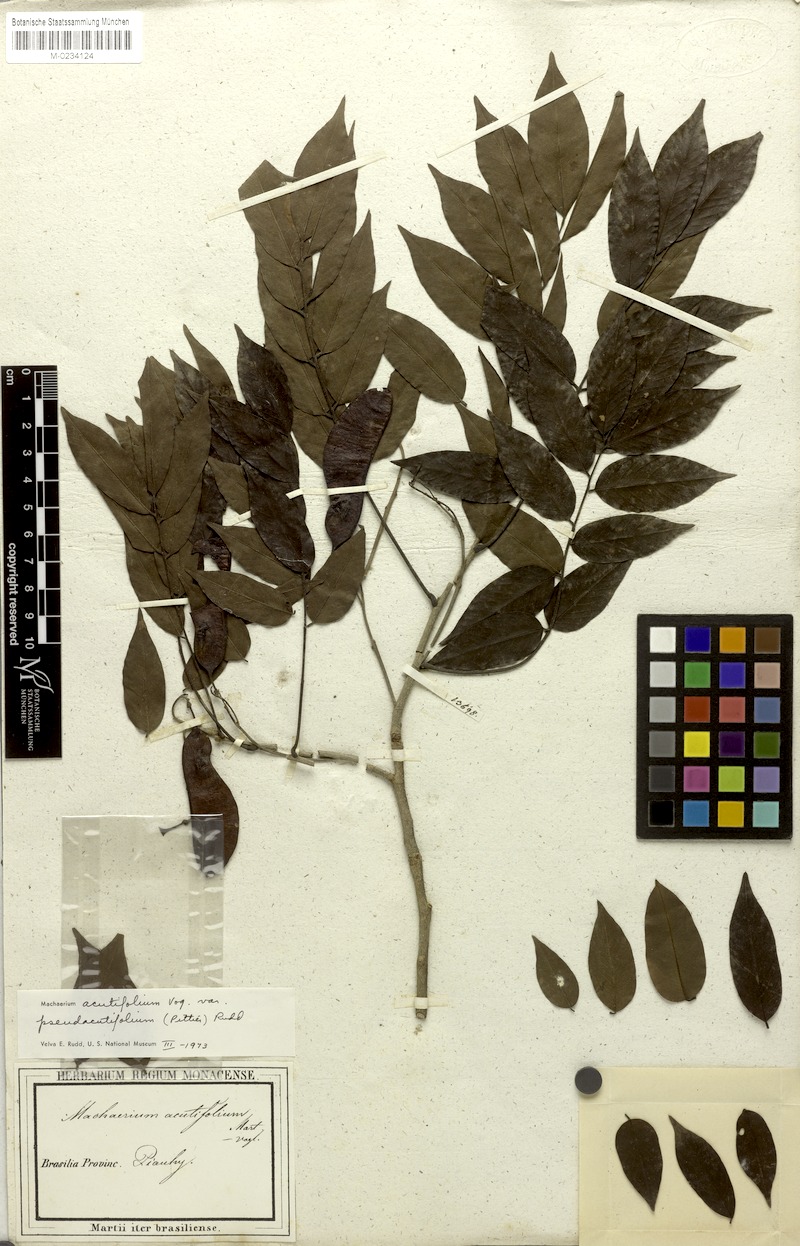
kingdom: Plantae
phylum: Tracheophyta
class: Magnoliopsida
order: Fabales
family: Fabaceae
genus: Machaerium
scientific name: Machaerium acutifolium
